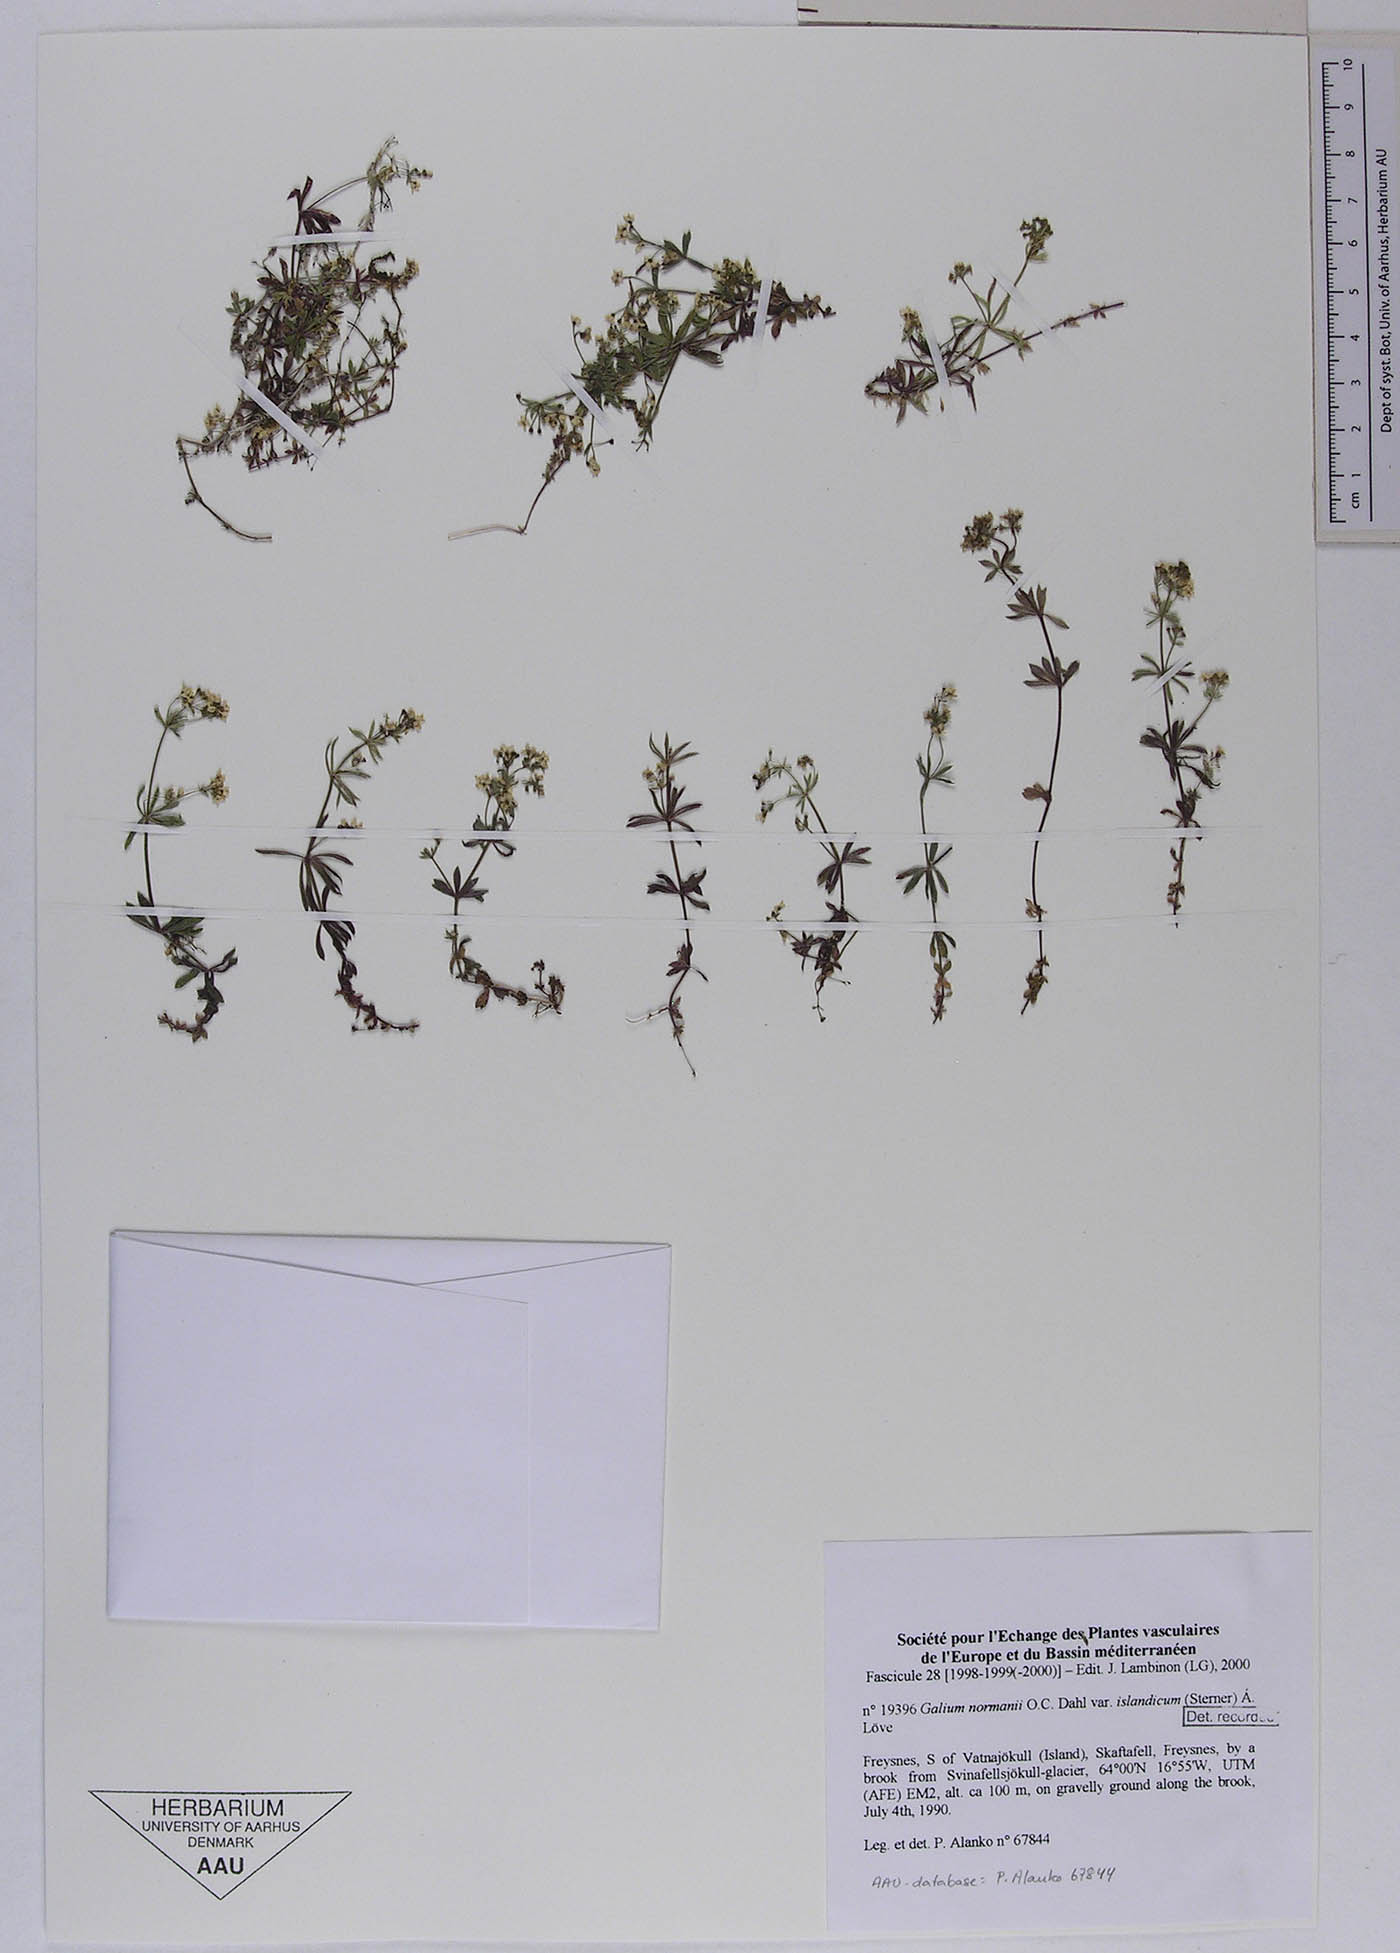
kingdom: Plantae
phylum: Tracheophyta
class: Magnoliopsida
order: Gentianales
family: Rubiaceae
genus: Galium
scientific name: Galium normanii
